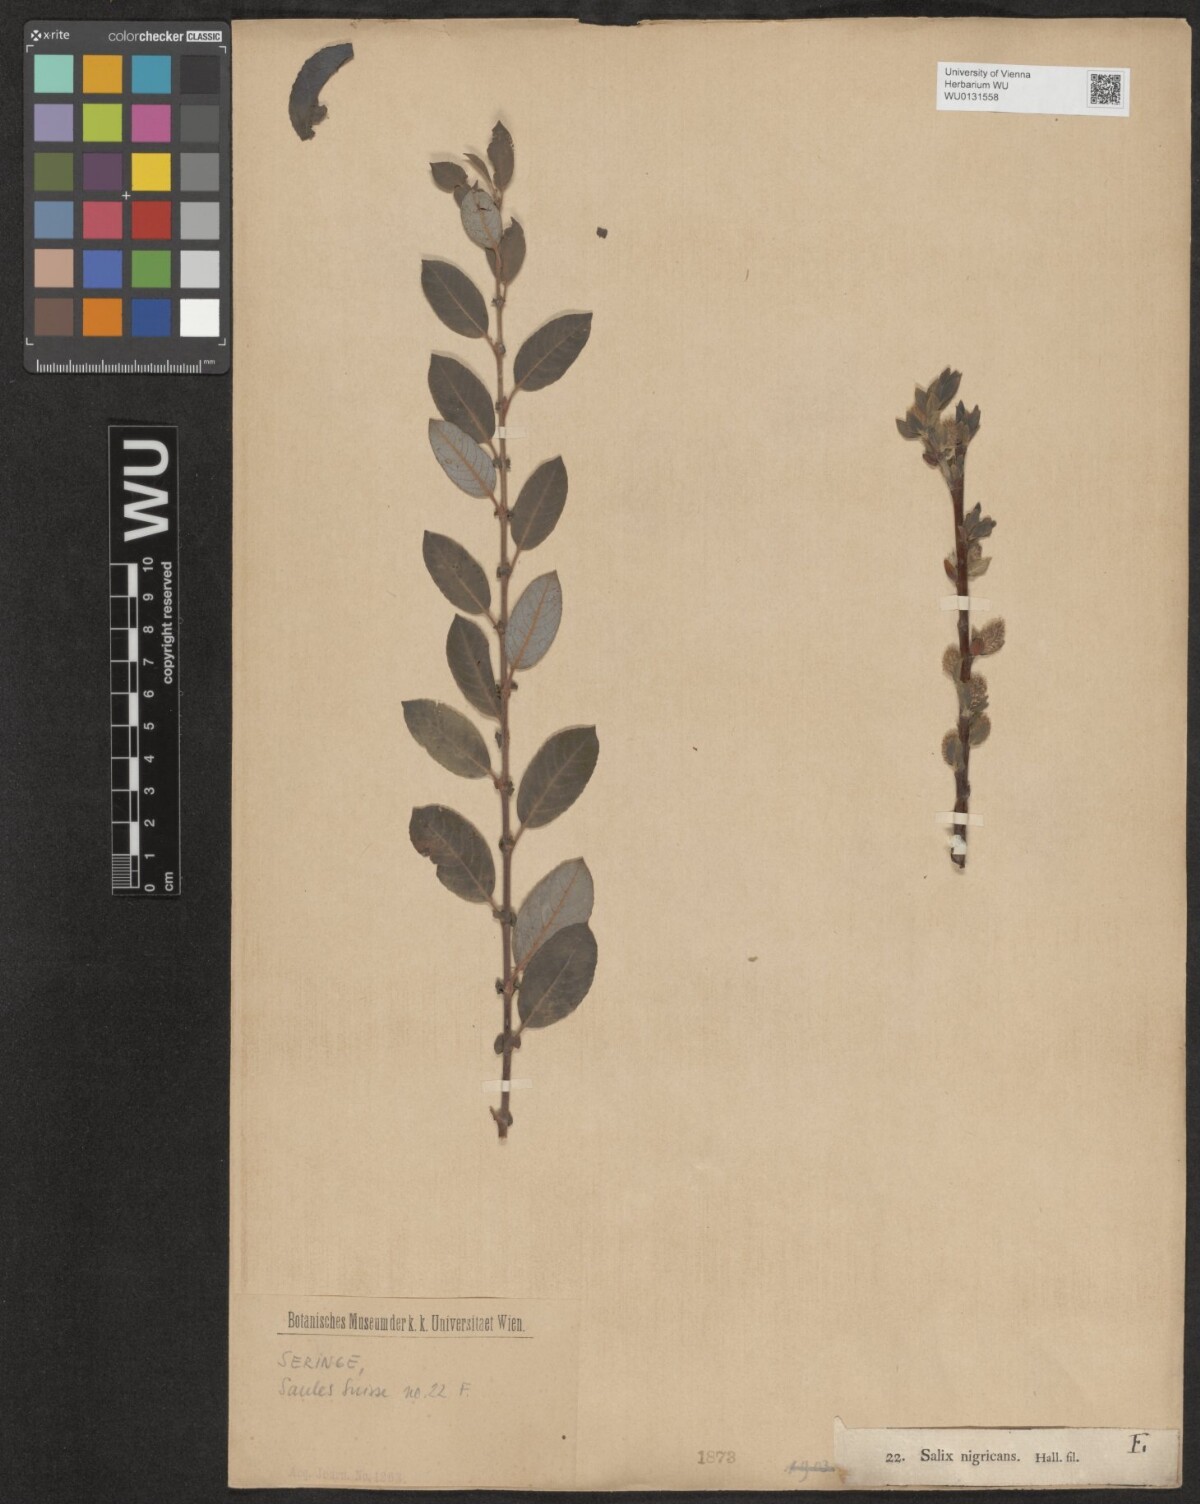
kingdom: Plantae
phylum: Tracheophyta
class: Magnoliopsida
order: Malpighiales
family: Salicaceae
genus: Salix
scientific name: Salix myrsinifolia
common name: Dark-leaved willow
